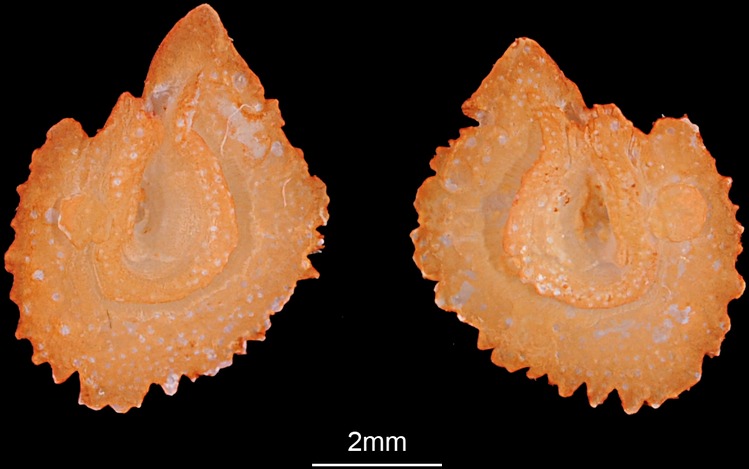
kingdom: Animalia
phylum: Chordata
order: Cypriniformes
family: Cyprinidae
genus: Squalius
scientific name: Squalius cephalus
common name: Chub
